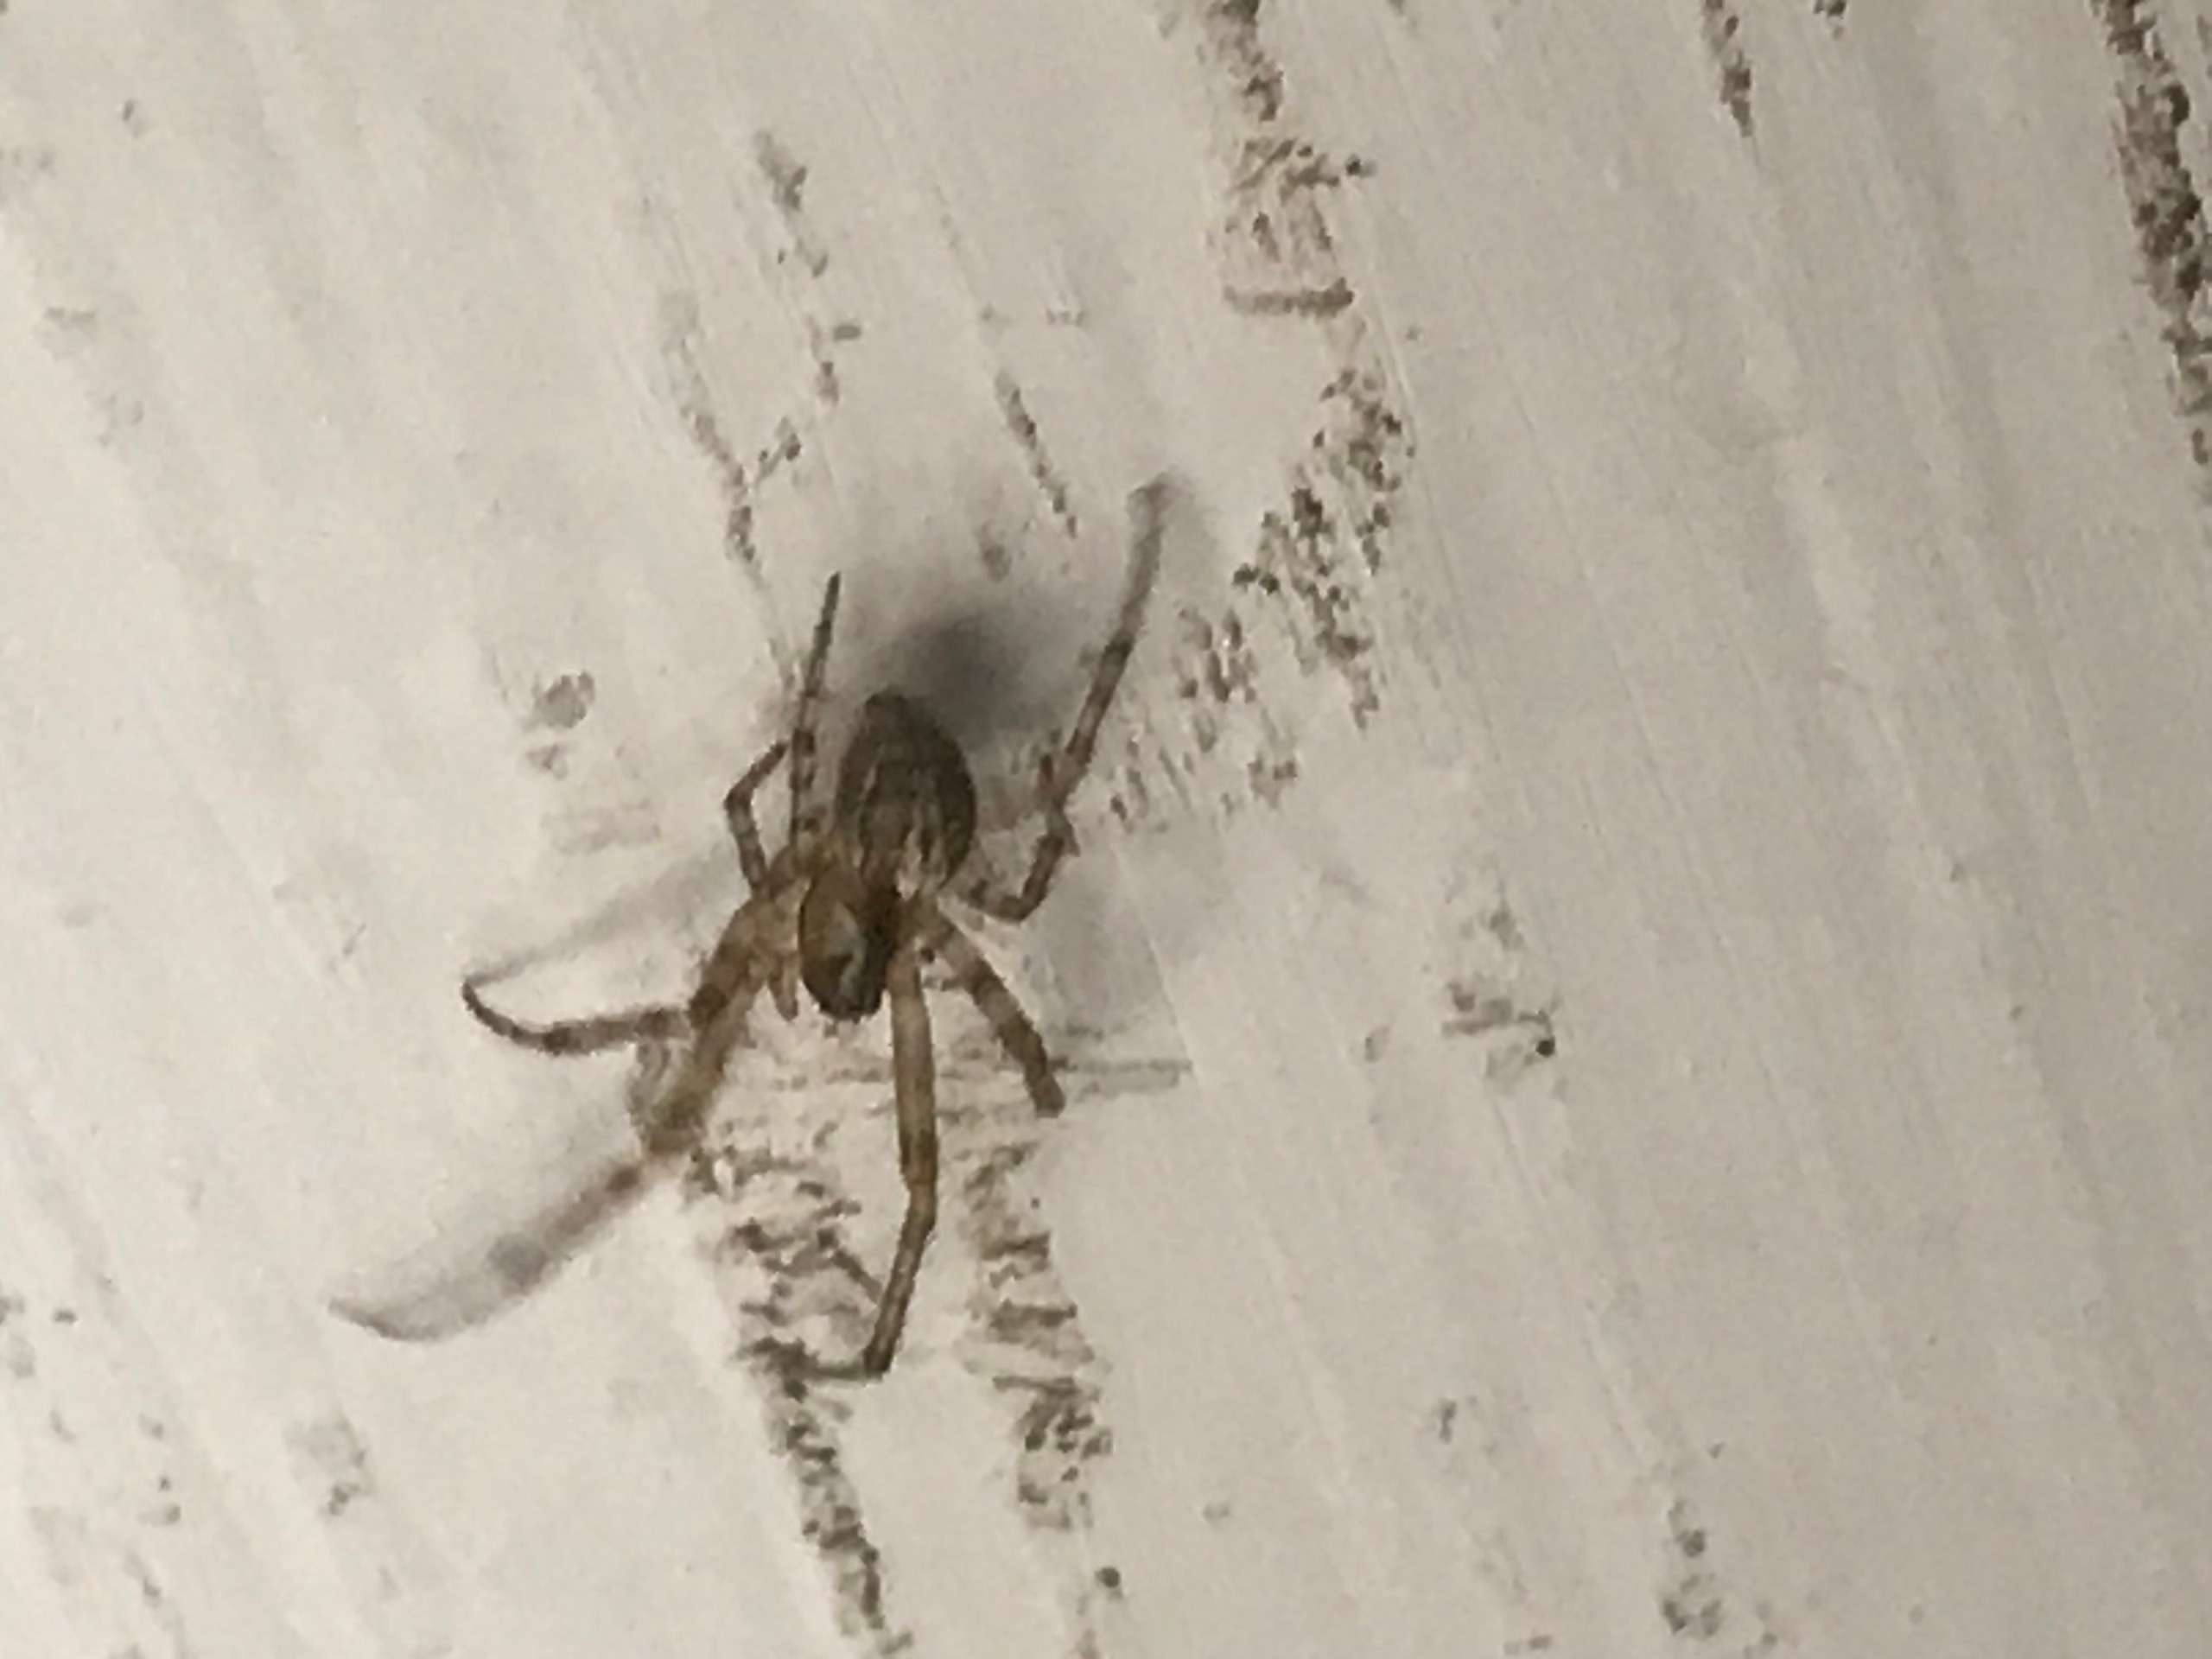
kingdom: Animalia
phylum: Arthropoda
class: Arachnida
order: Araneae
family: Araneidae
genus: Zygiella
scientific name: Zygiella x-notata
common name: Grå sektoredderkop
